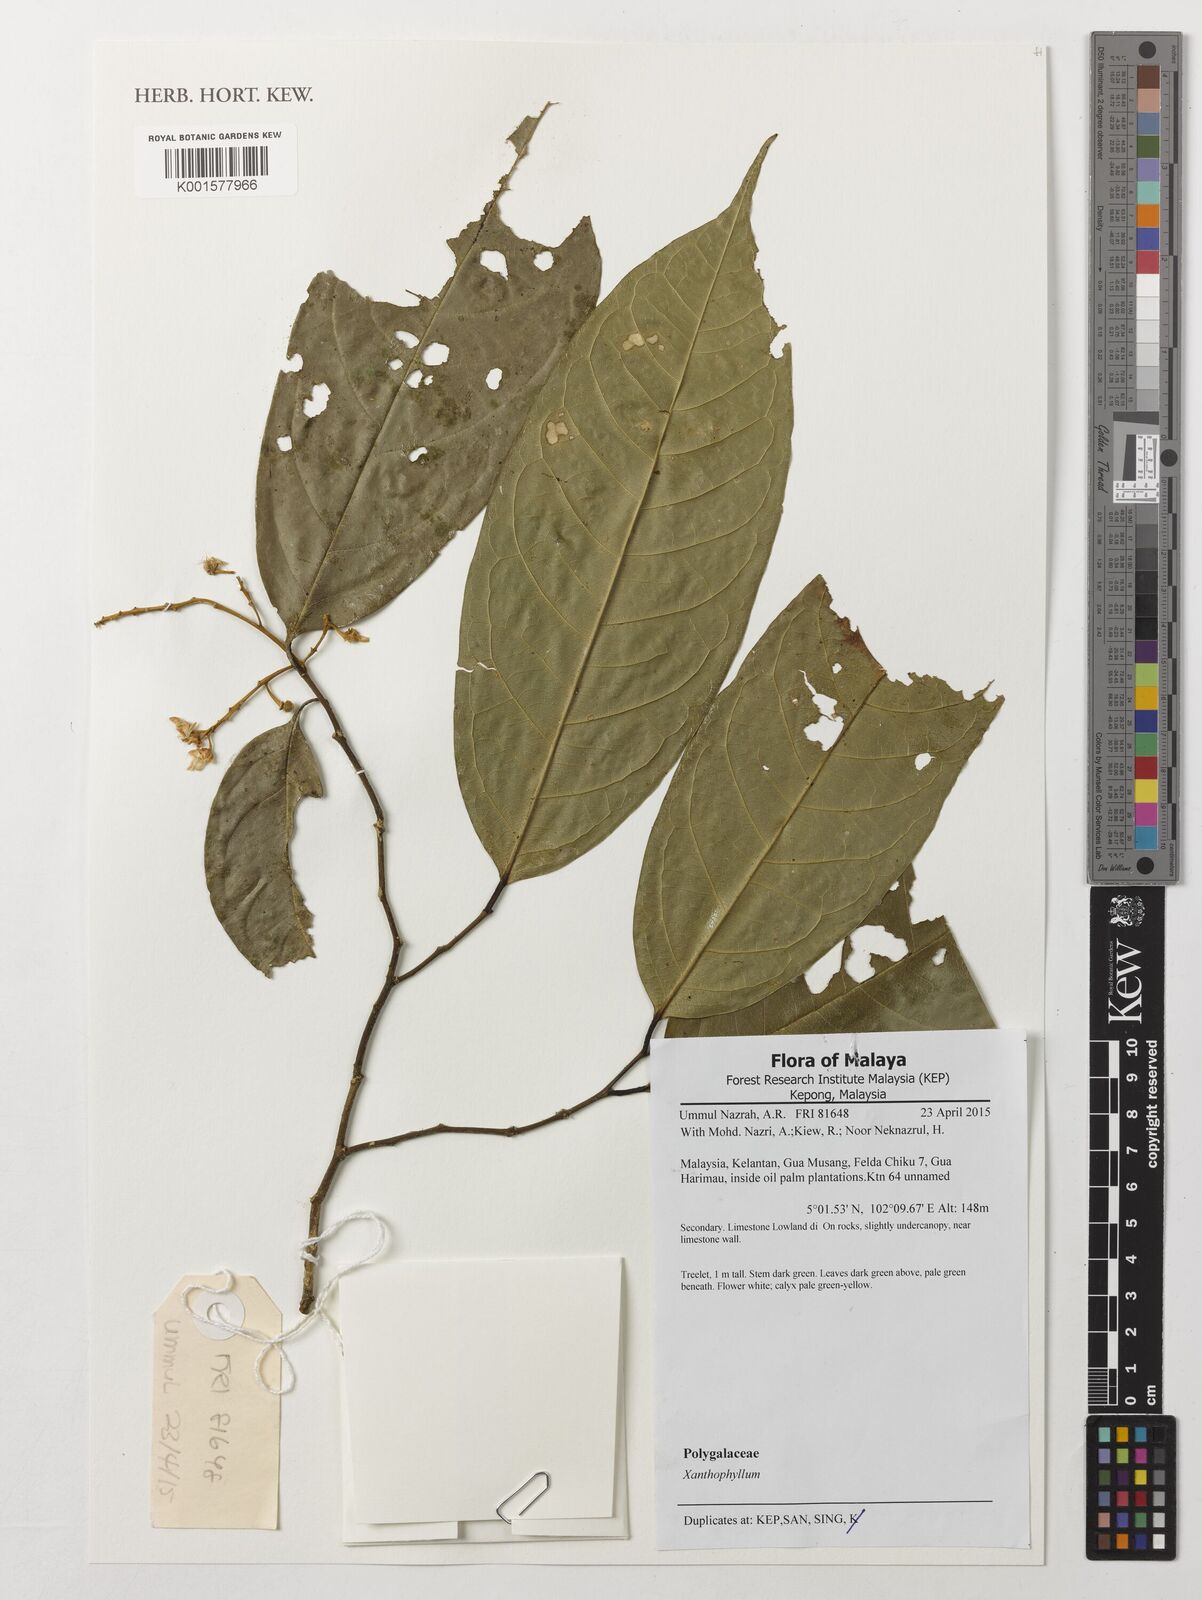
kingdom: Plantae
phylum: Tracheophyta
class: Magnoliopsida
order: Fabales
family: Polygalaceae
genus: Xanthophyllum
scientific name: Xanthophyllum
